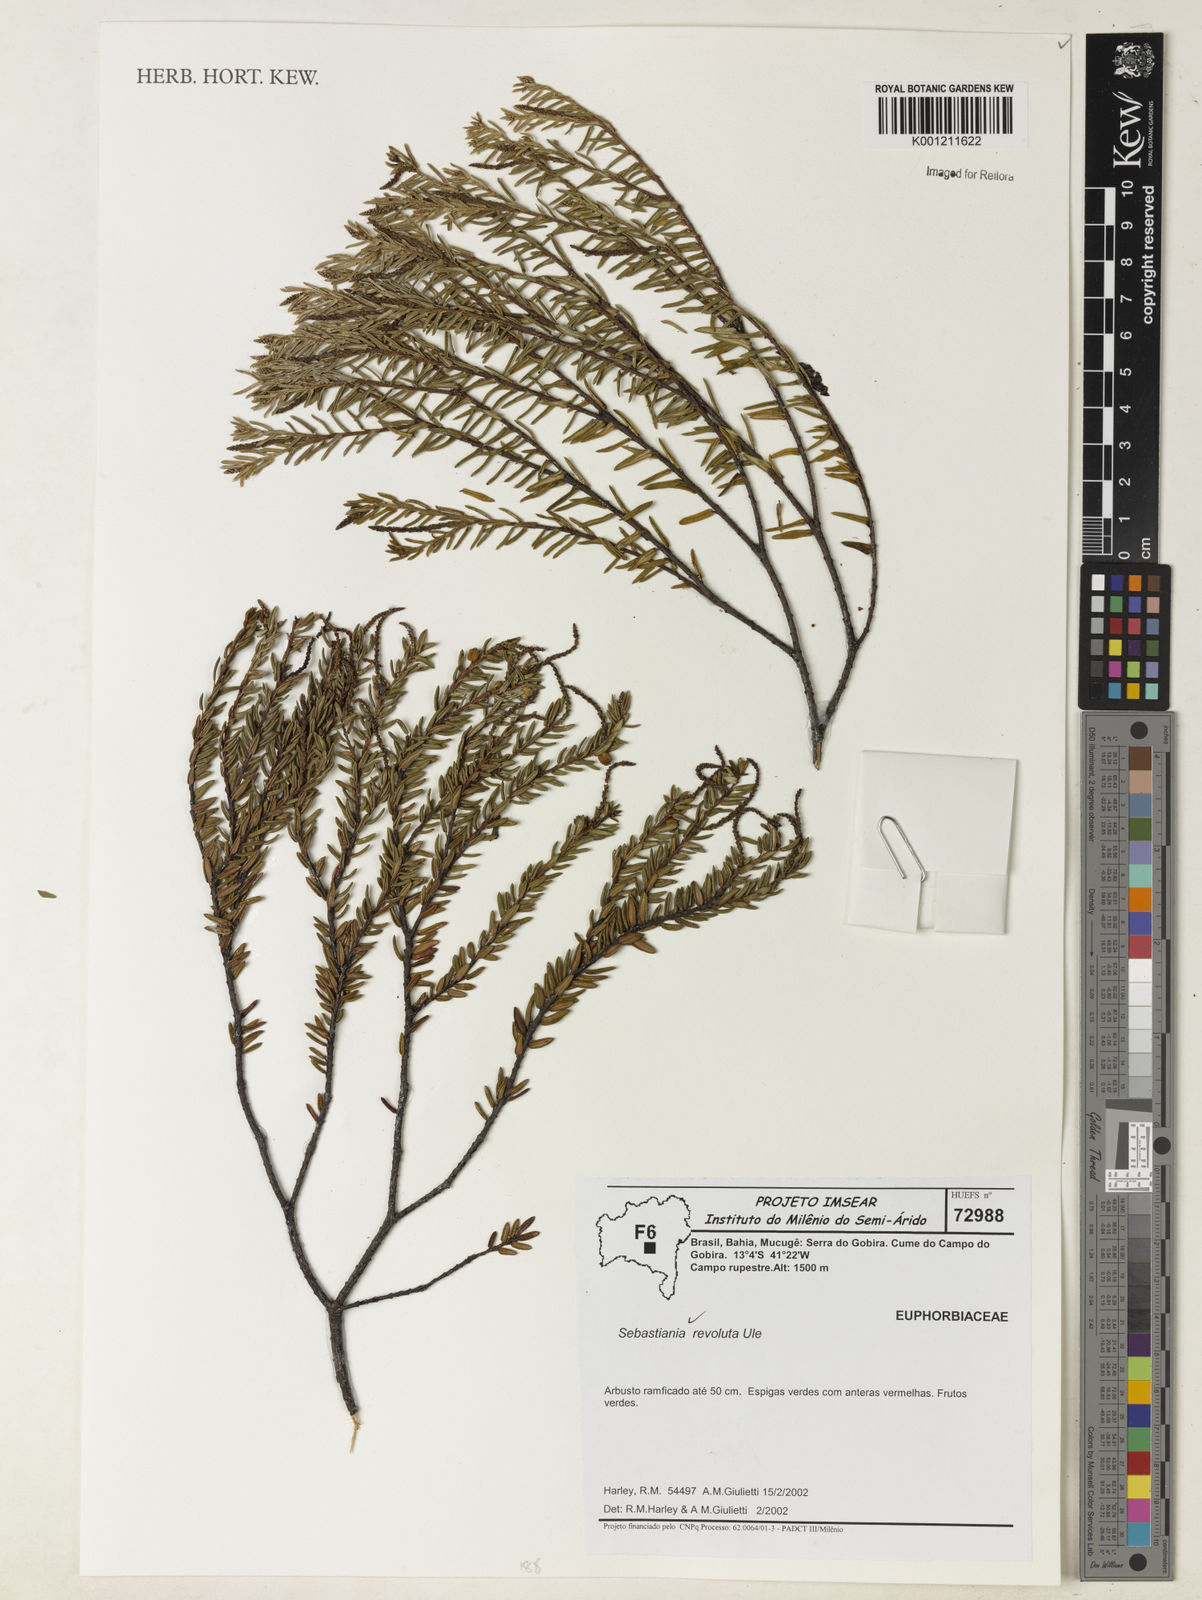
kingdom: Plantae
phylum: Tracheophyta
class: Magnoliopsida
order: Malpighiales
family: Euphorbiaceae
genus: Microstachys
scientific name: Microstachys revoluta
